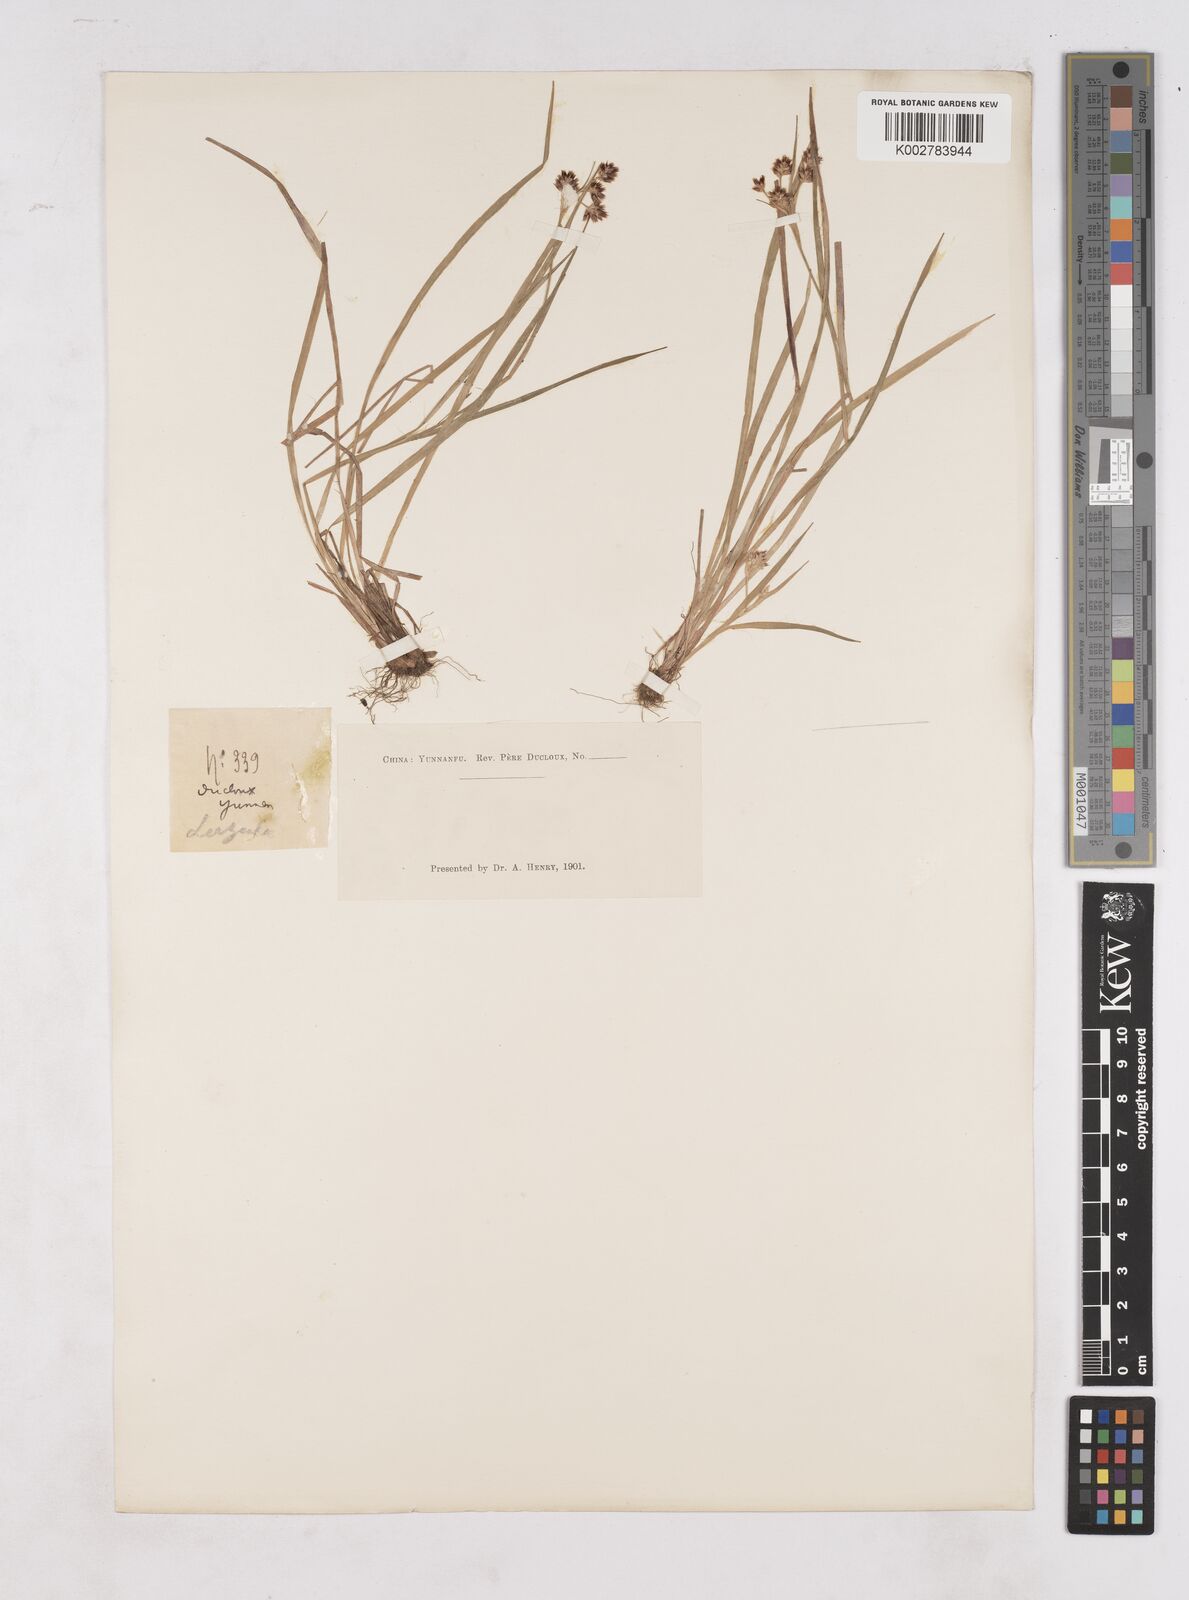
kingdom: Plantae
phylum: Tracheophyta
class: Liliopsida
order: Poales
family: Juncaceae
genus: Luzula
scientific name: Luzula campestris
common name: Field wood-rush
